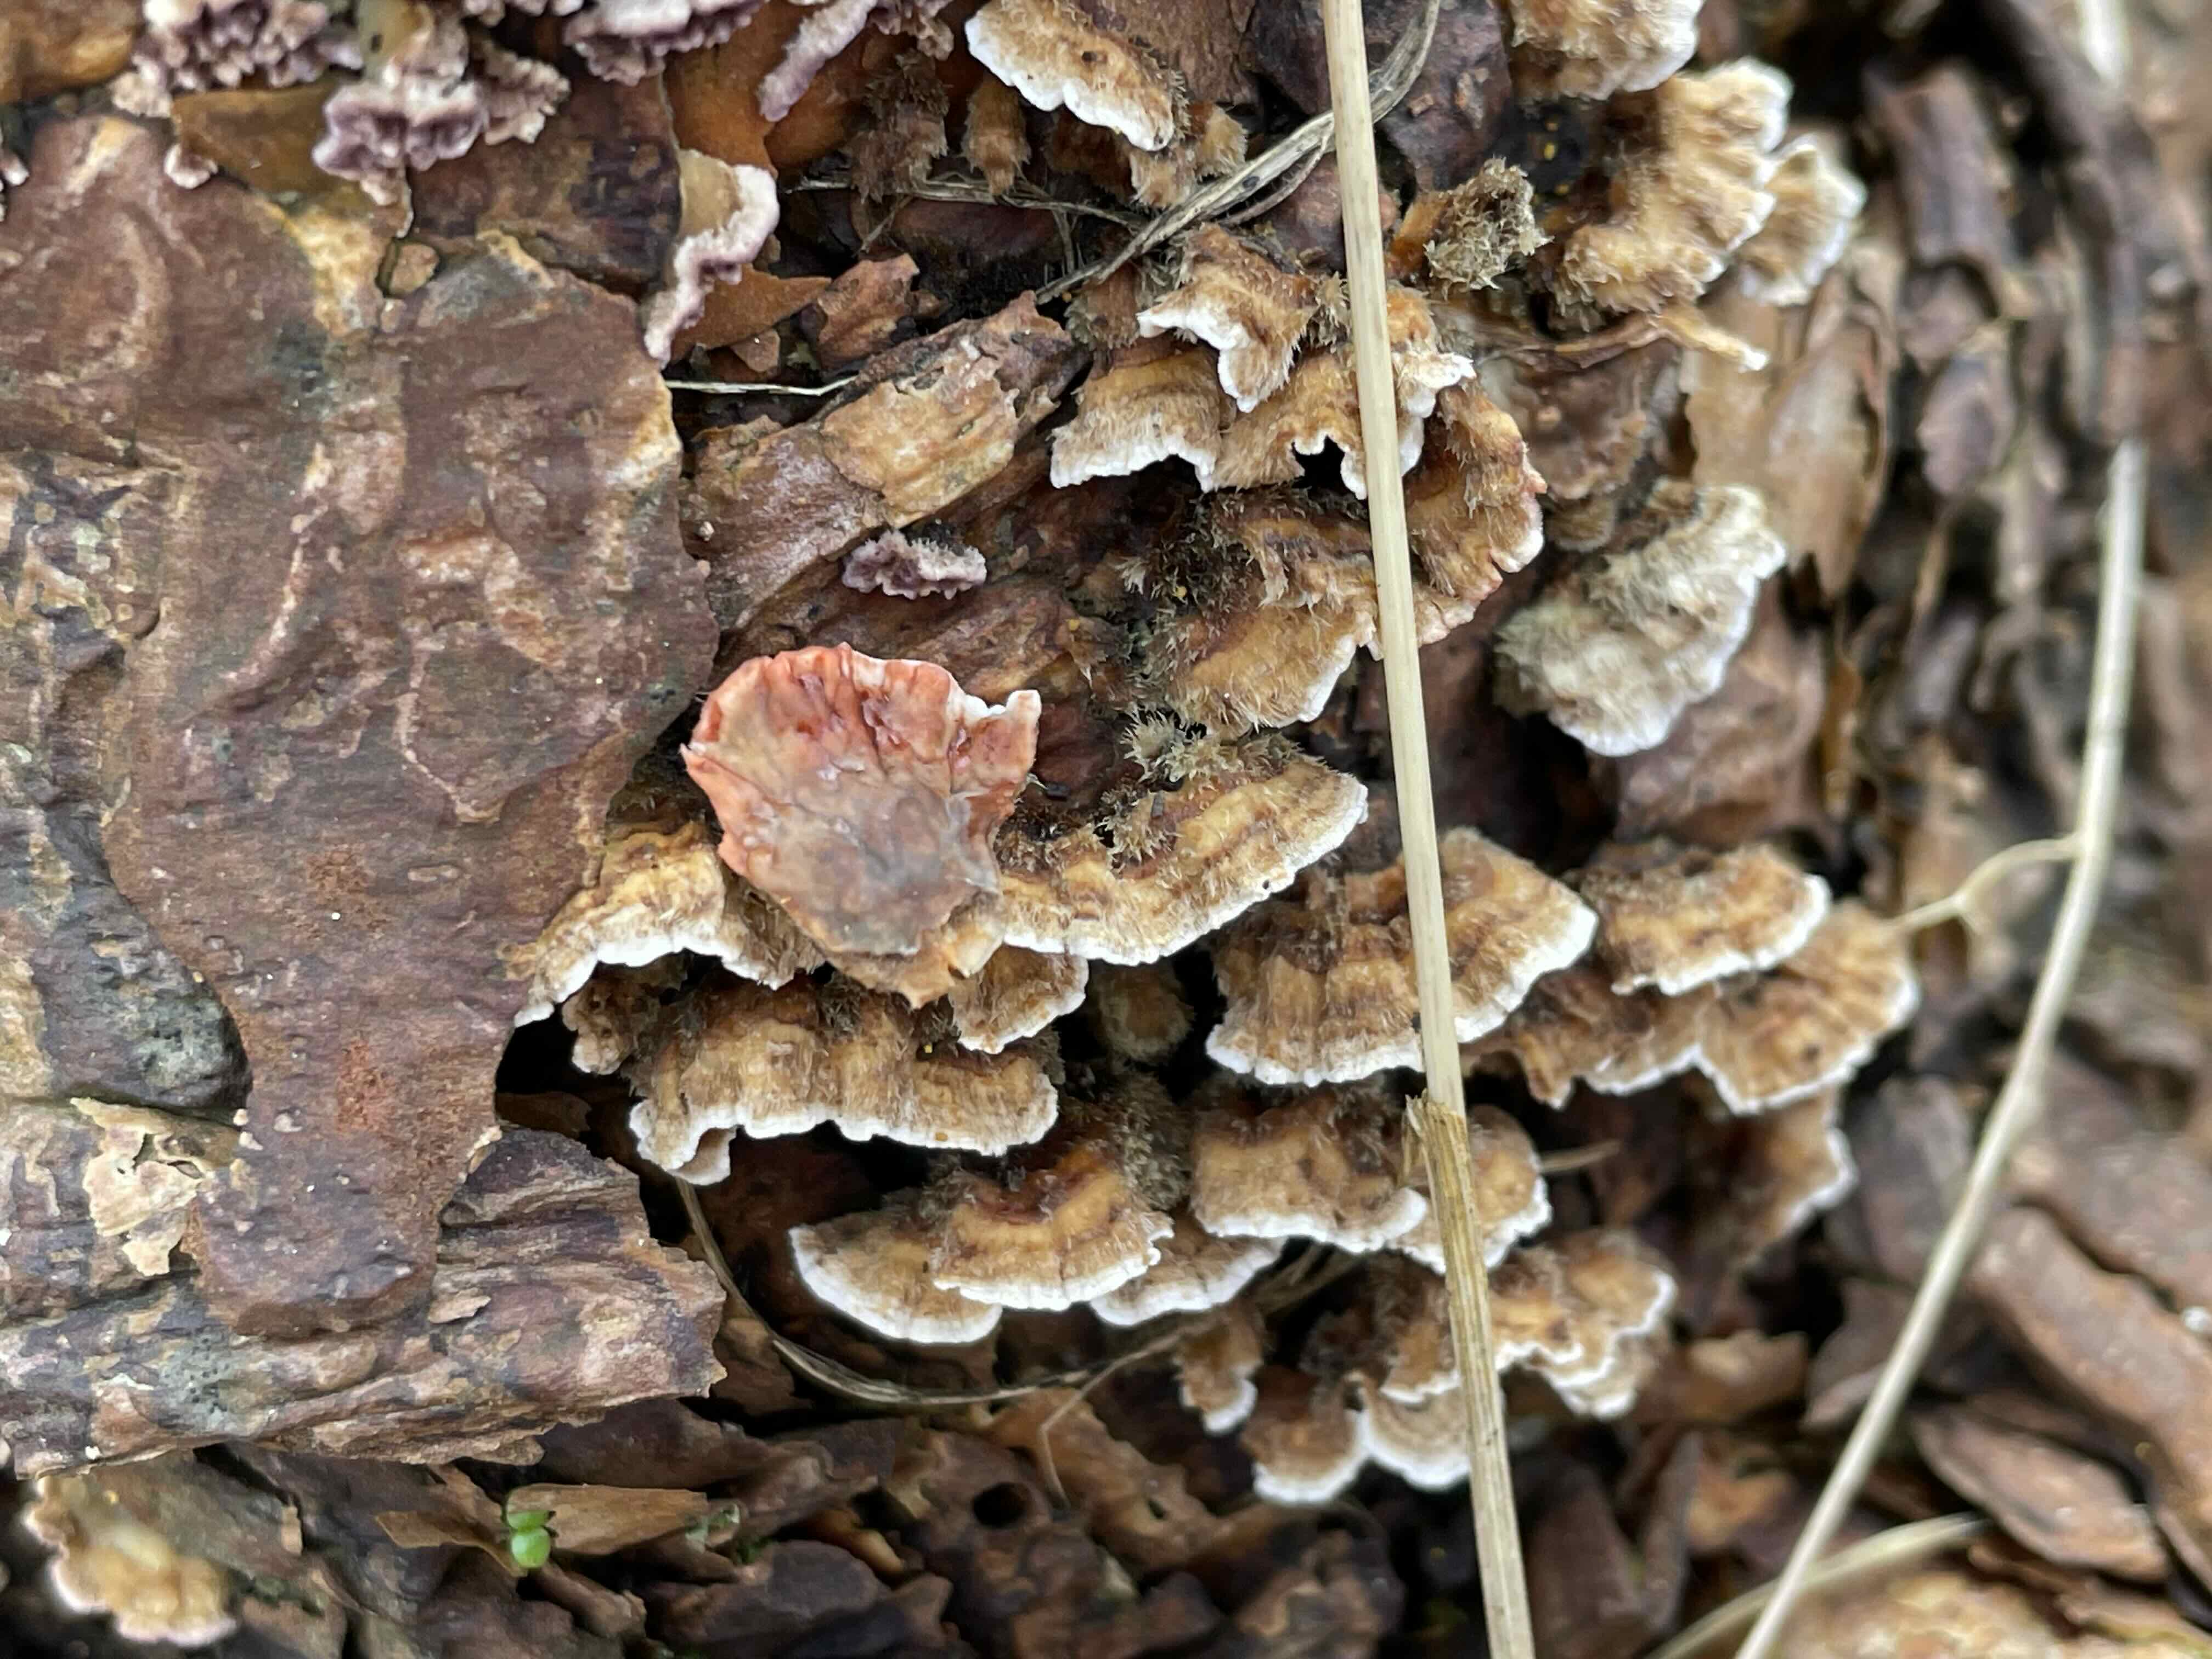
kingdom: Fungi
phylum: Basidiomycota
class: Agaricomycetes
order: Russulales
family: Stereaceae
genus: Stereum
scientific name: Stereum sanguinolentum
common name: blødende lædersvamp
